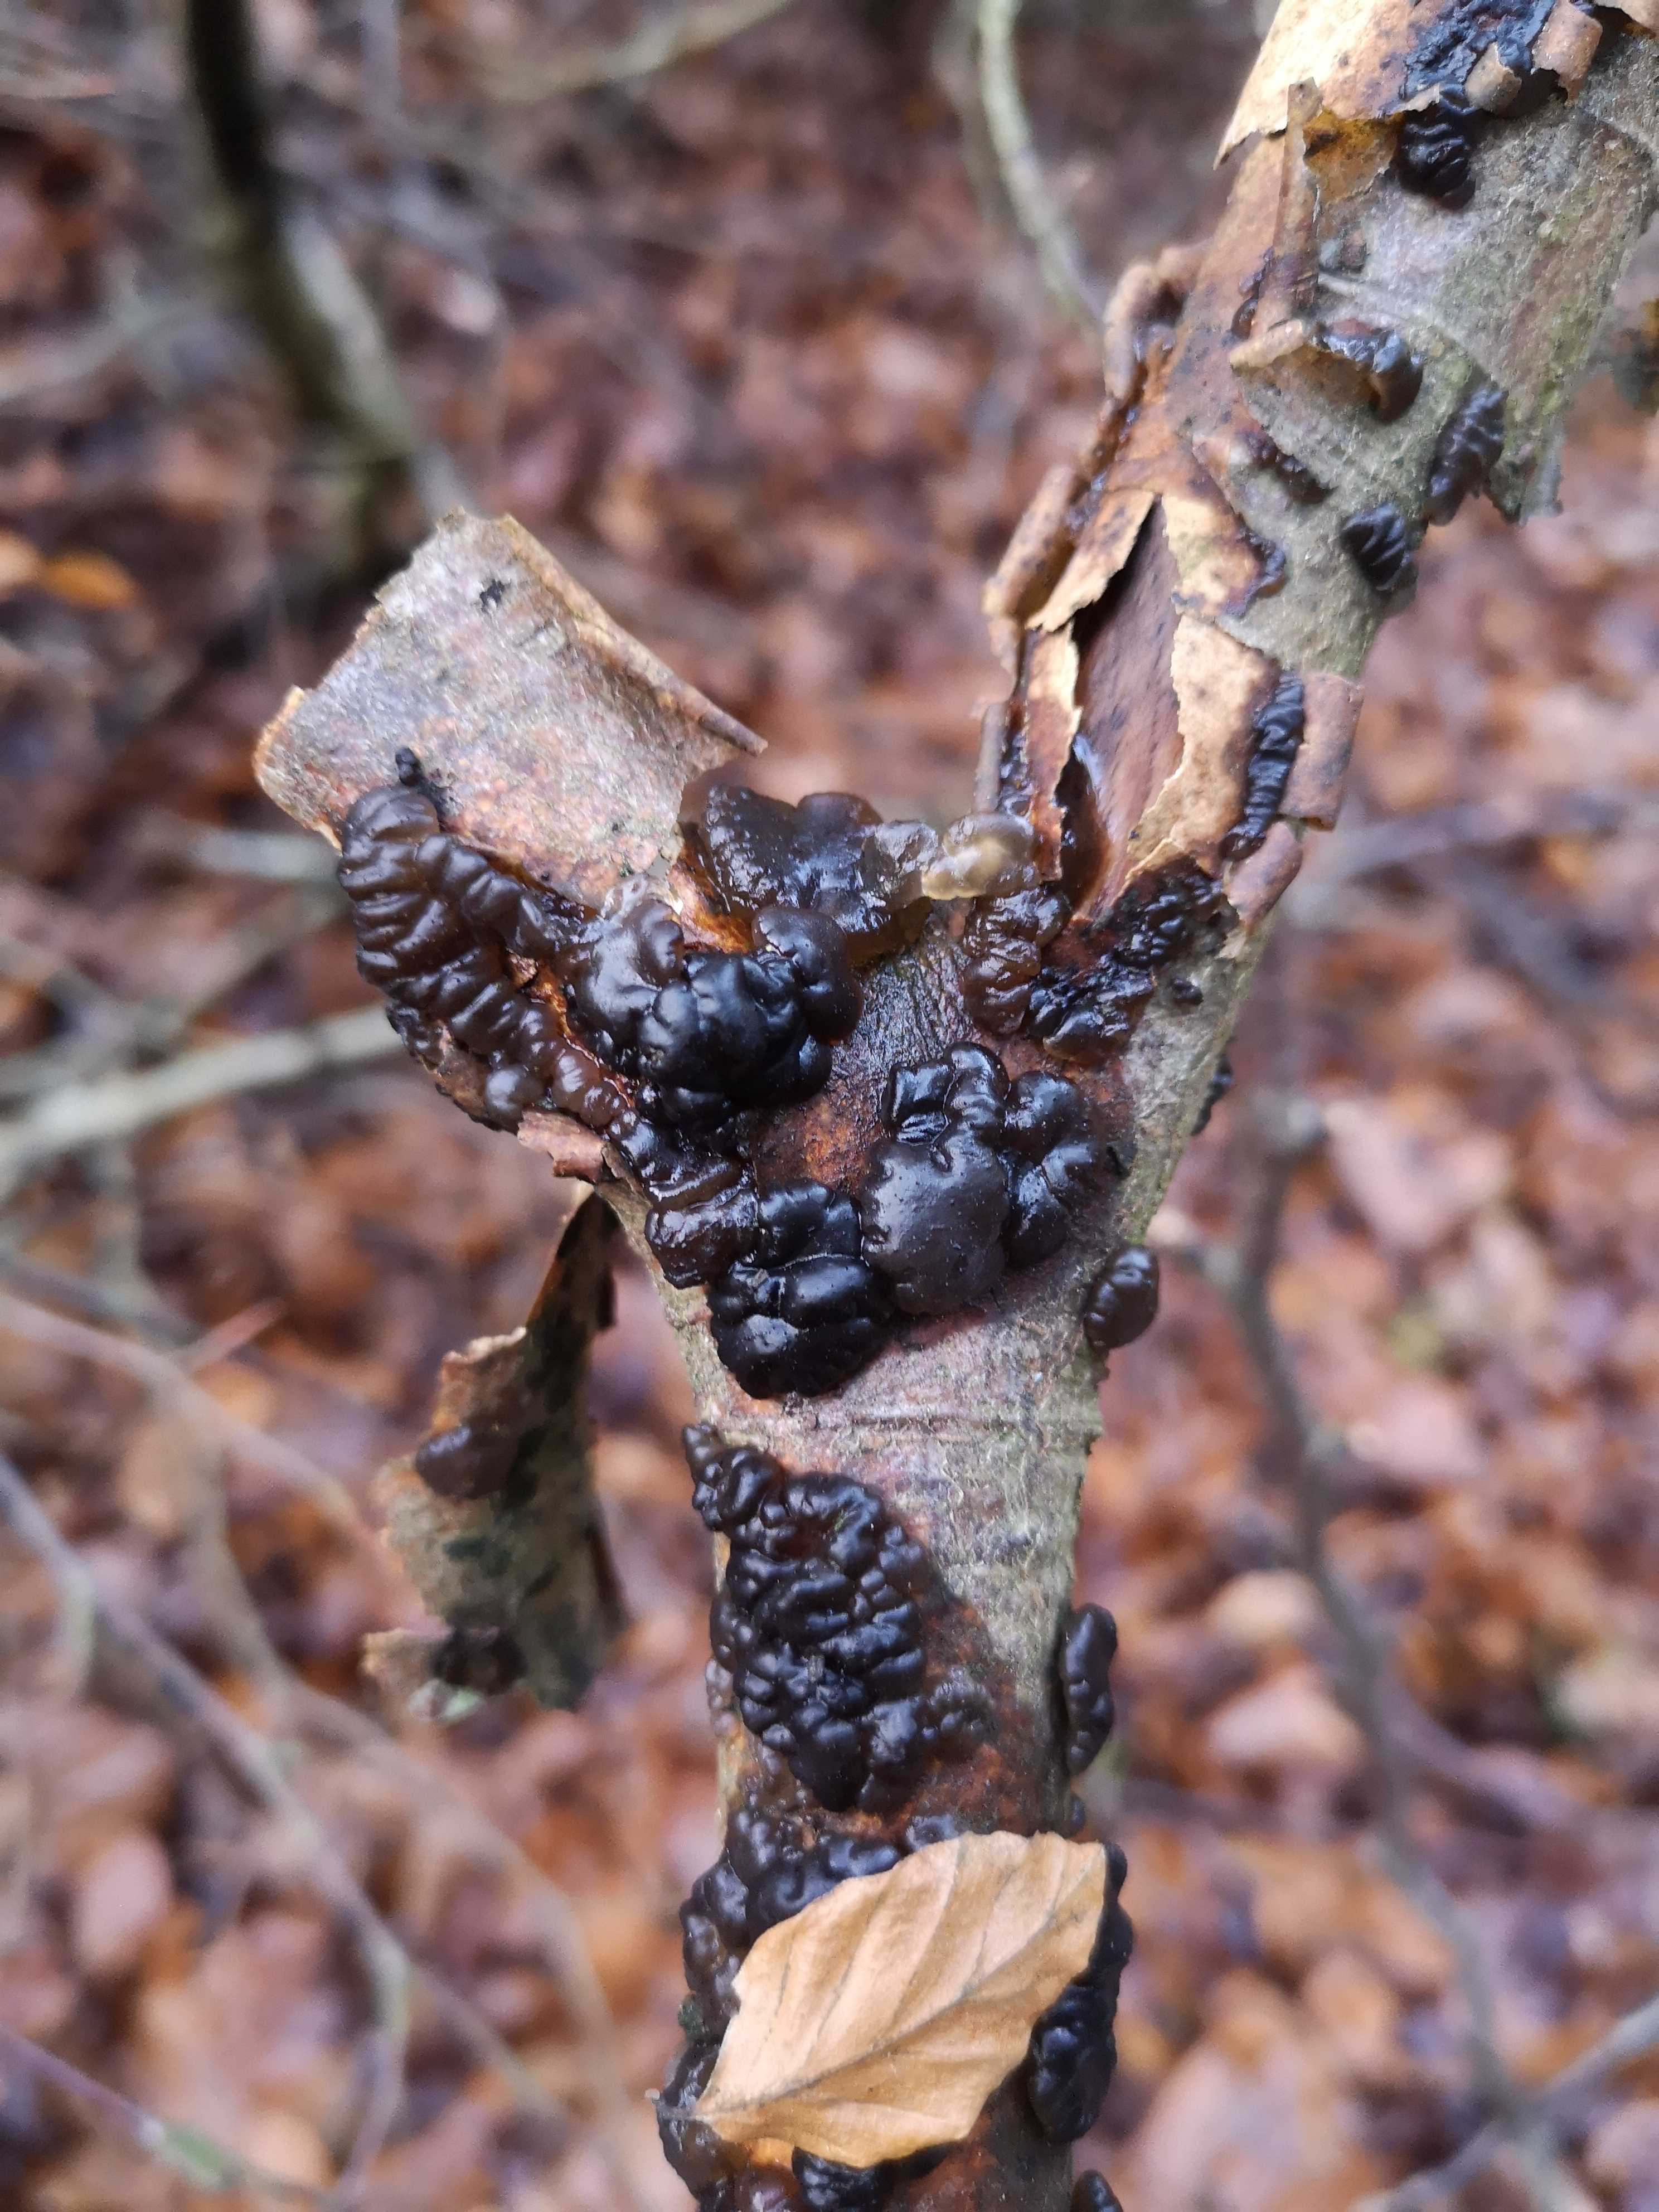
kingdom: Fungi
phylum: Basidiomycota
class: Agaricomycetes
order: Auriculariales
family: Auriculariaceae
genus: Exidia
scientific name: Exidia nigricans
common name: almindelig bævretop
